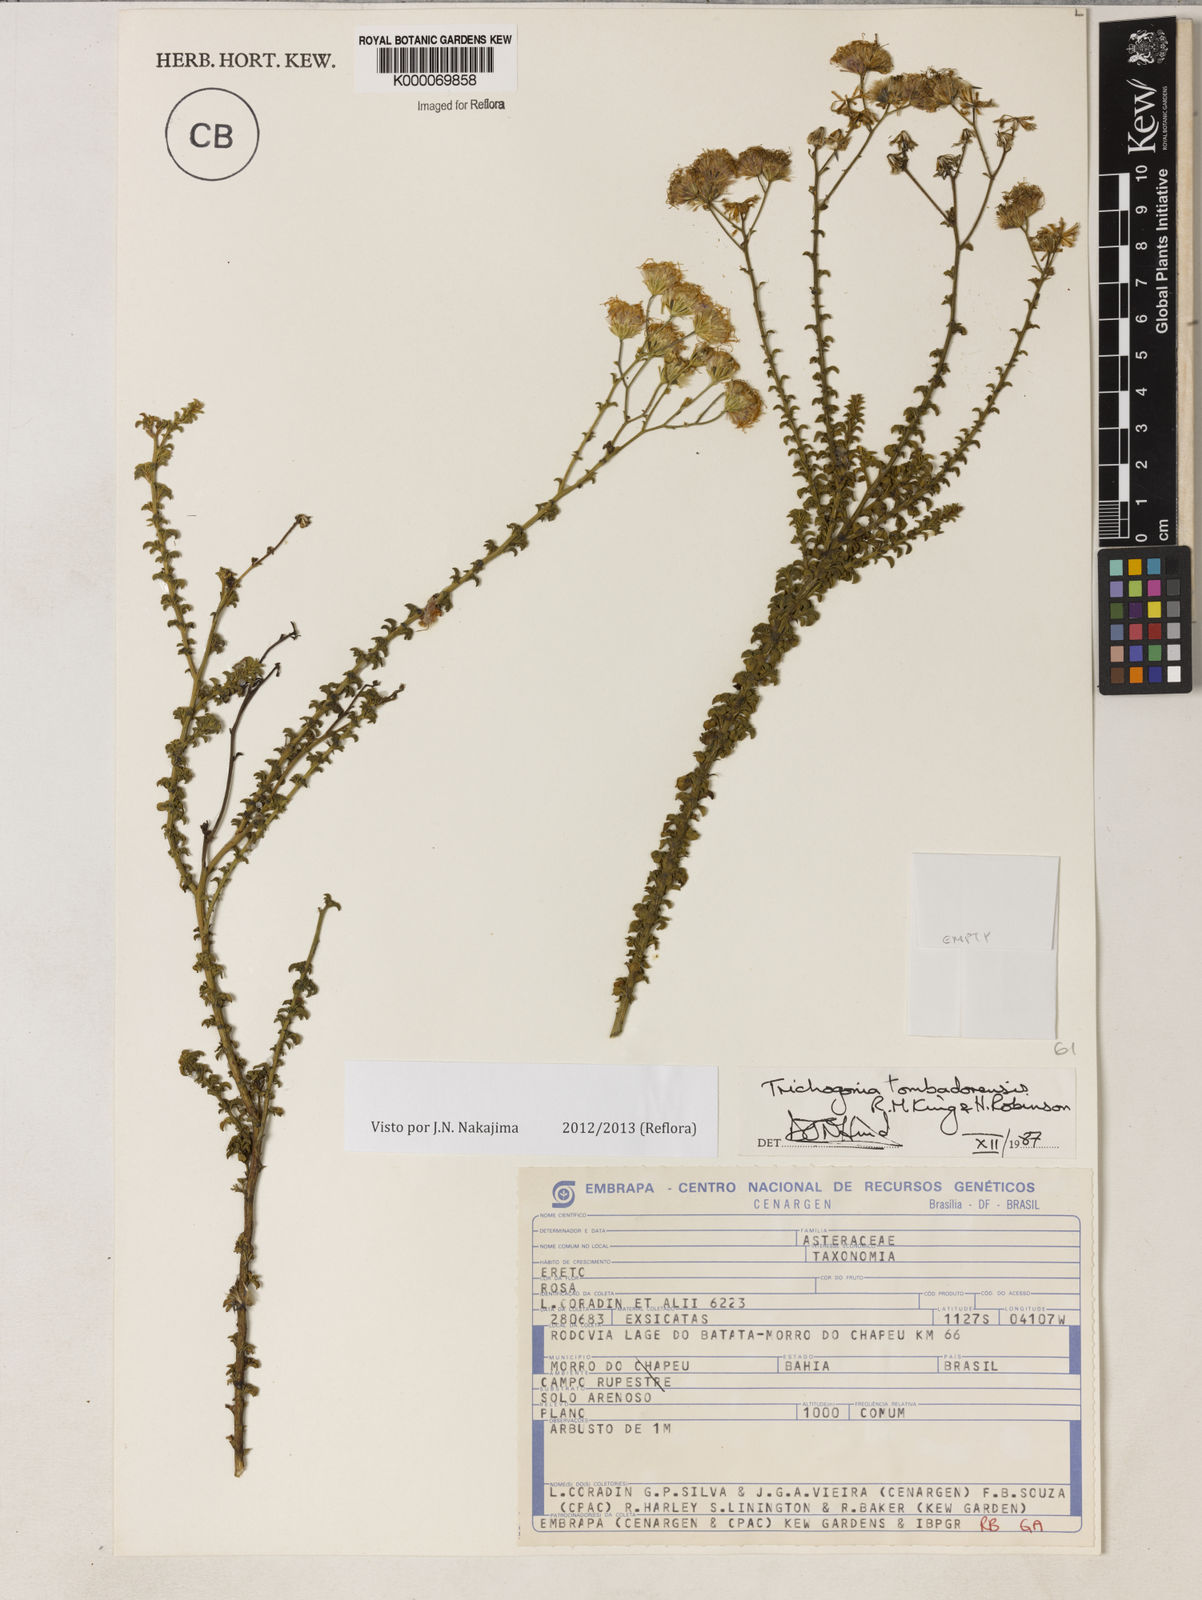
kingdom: Plantae
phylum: Tracheophyta
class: Magnoliopsida
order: Asterales
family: Asteraceae
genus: Trichogonia
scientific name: Trichogonia tombadorensis
